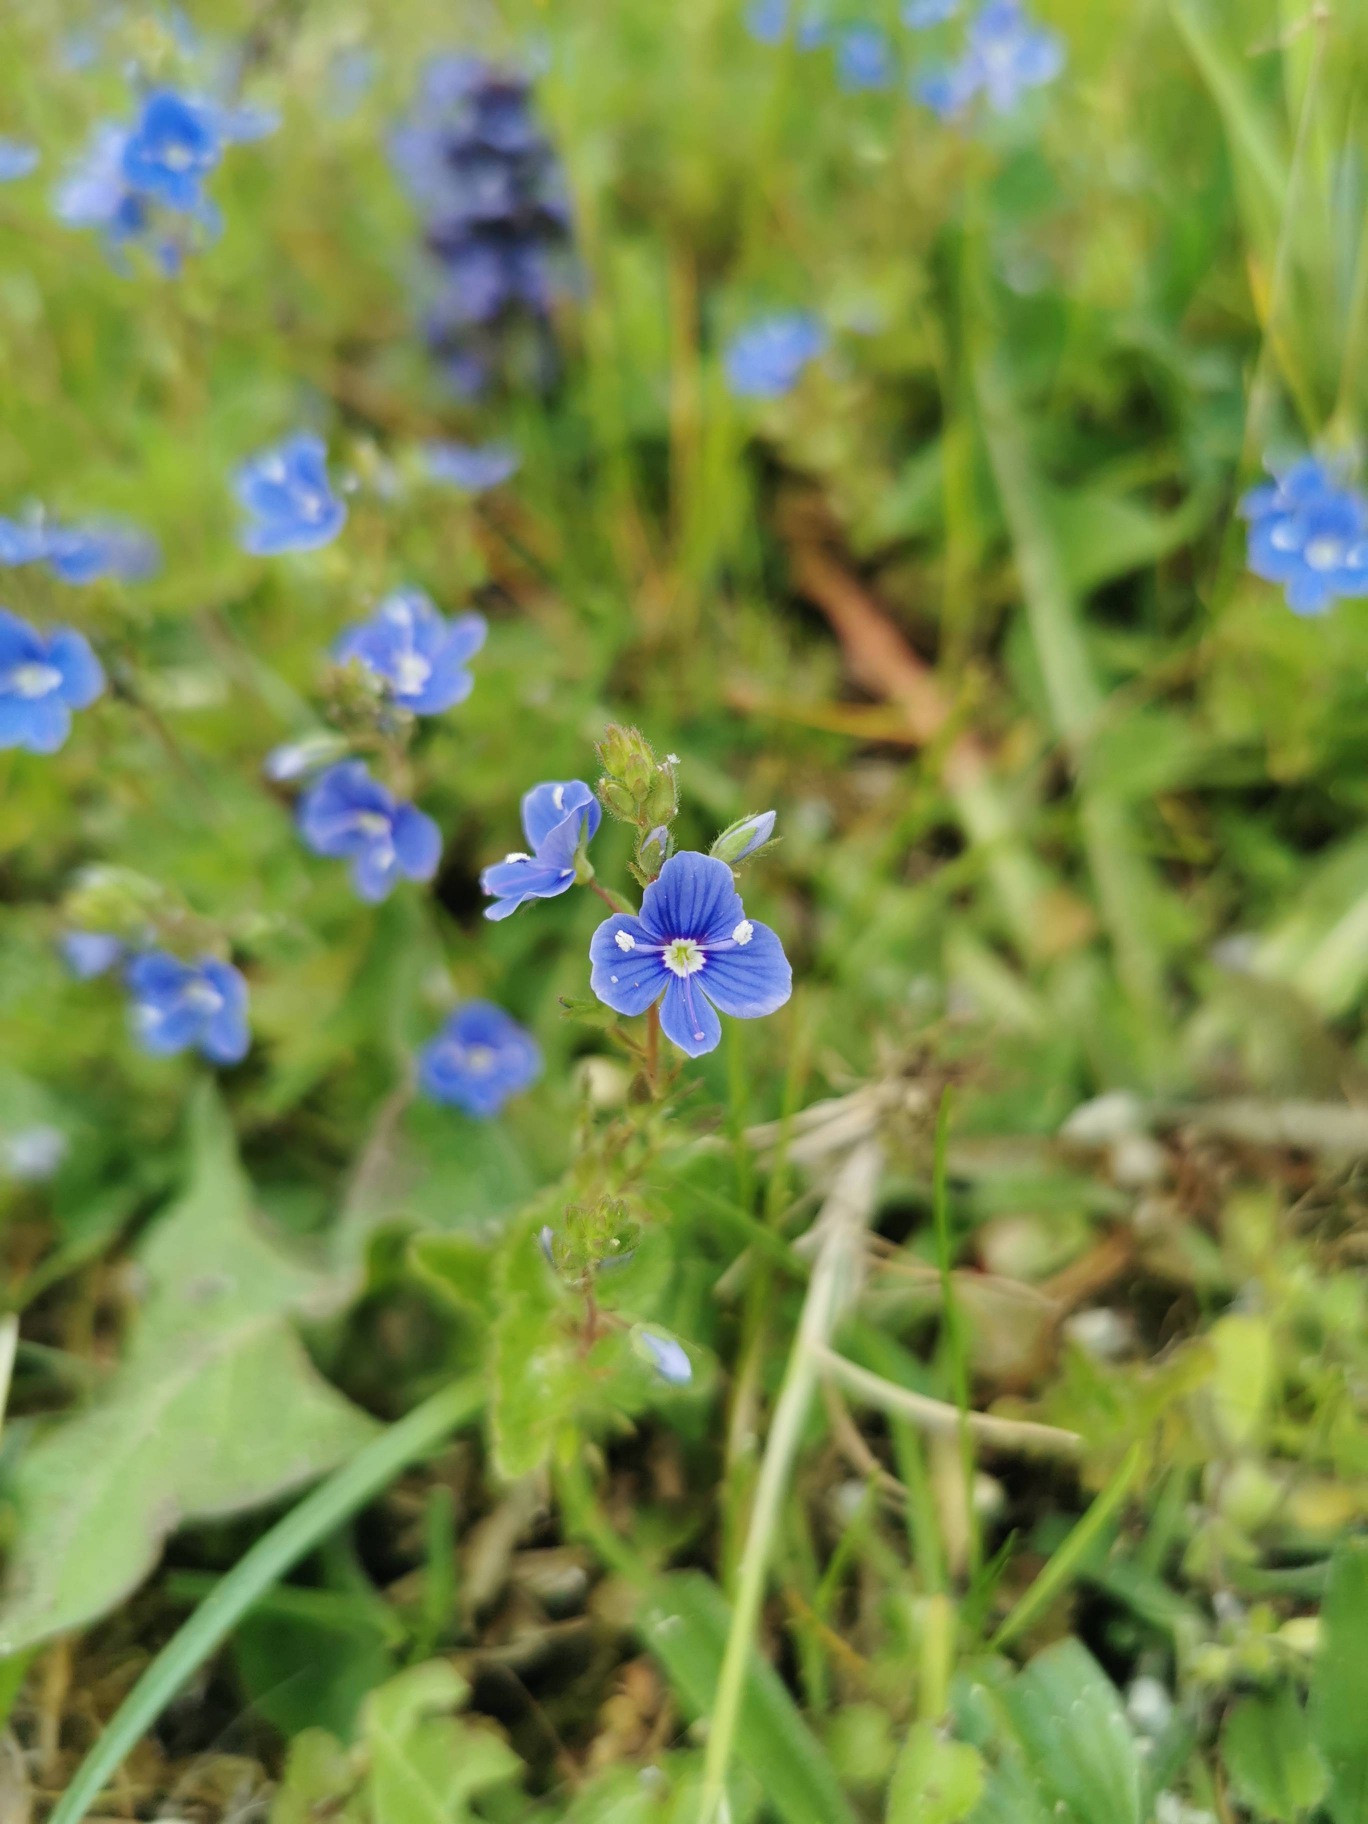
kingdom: Plantae
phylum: Tracheophyta
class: Magnoliopsida
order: Lamiales
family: Plantaginaceae
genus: Veronica
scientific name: Veronica chamaedrys
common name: Tveskægget ærenpris
